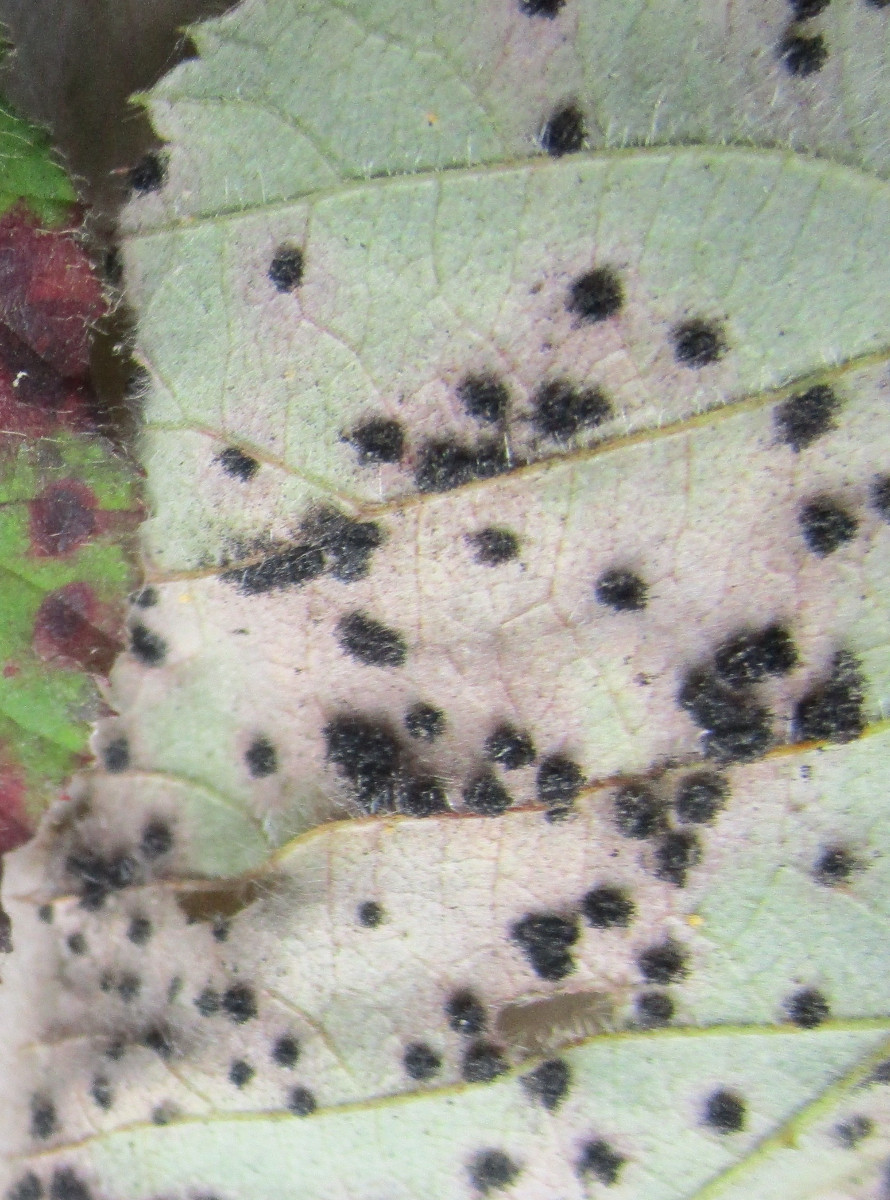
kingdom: Fungi
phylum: Basidiomycota
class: Pucciniomycetes
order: Pucciniales
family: Phragmidiaceae
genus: Phragmidium
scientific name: Phragmidium
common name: flercellerust
